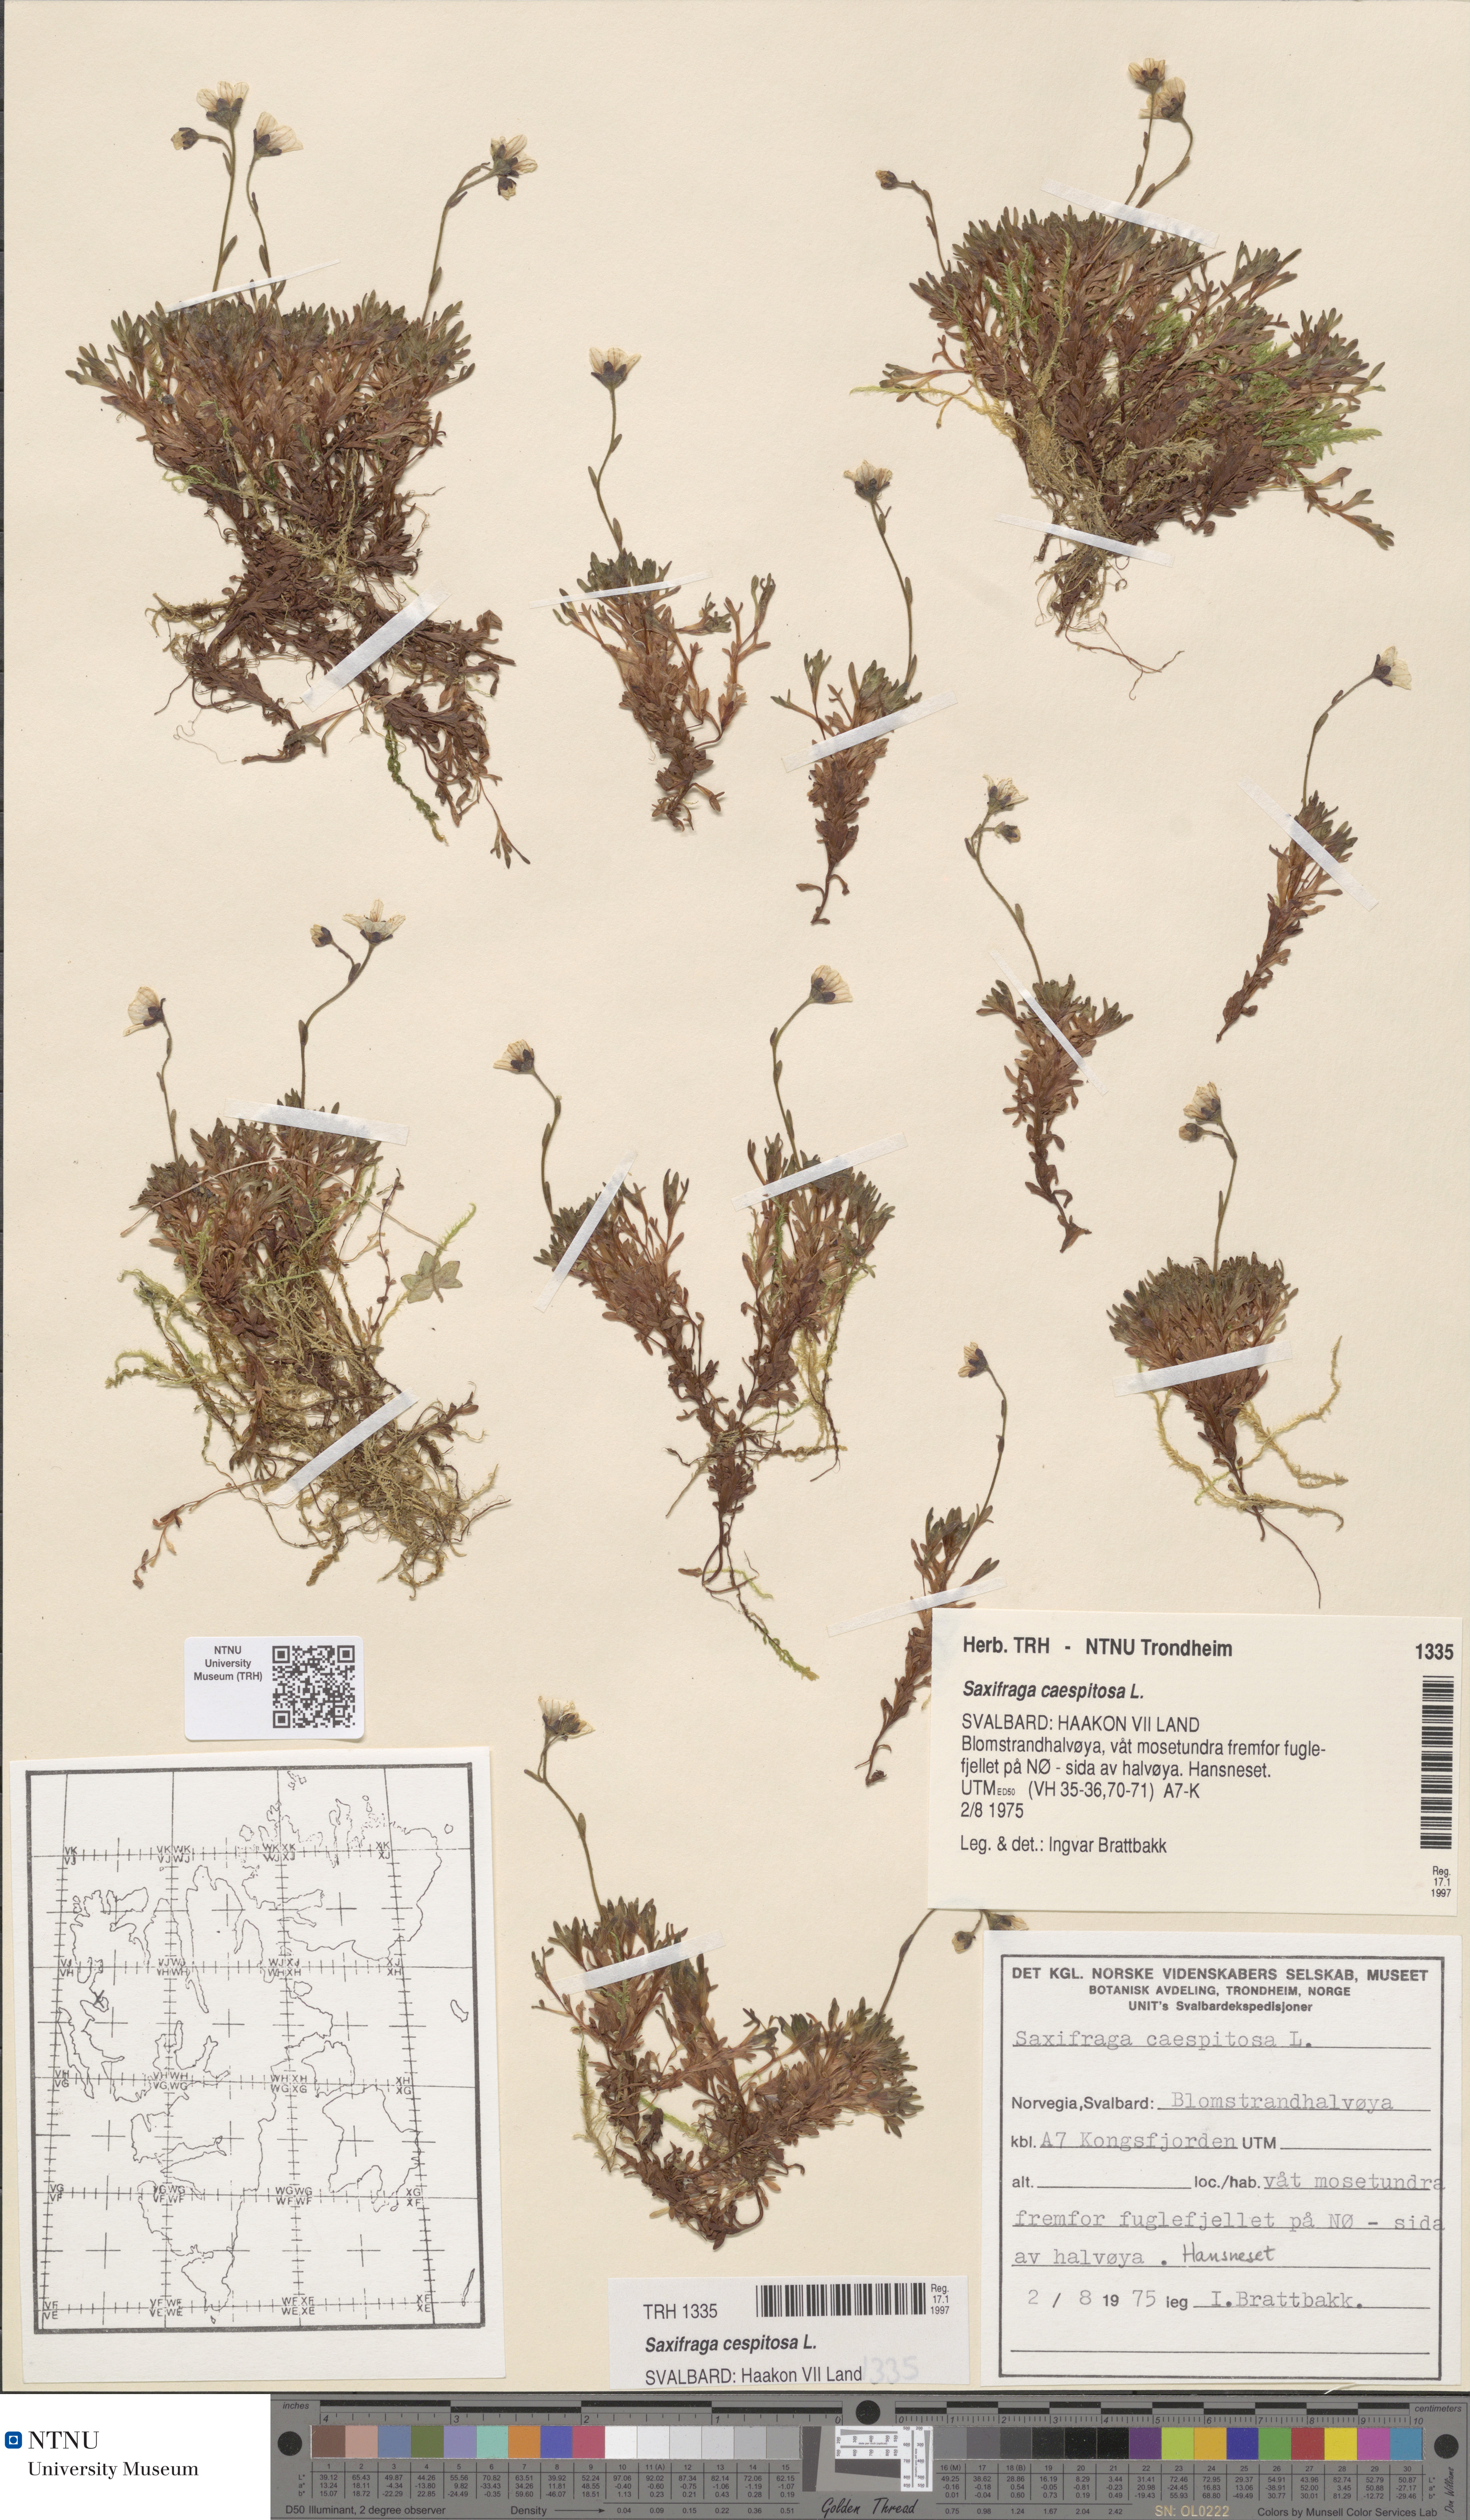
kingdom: Plantae
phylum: Tracheophyta
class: Magnoliopsida
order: Saxifragales
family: Saxifragaceae
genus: Saxifraga
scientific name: Saxifraga cespitosa
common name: Tufted saxifrage
